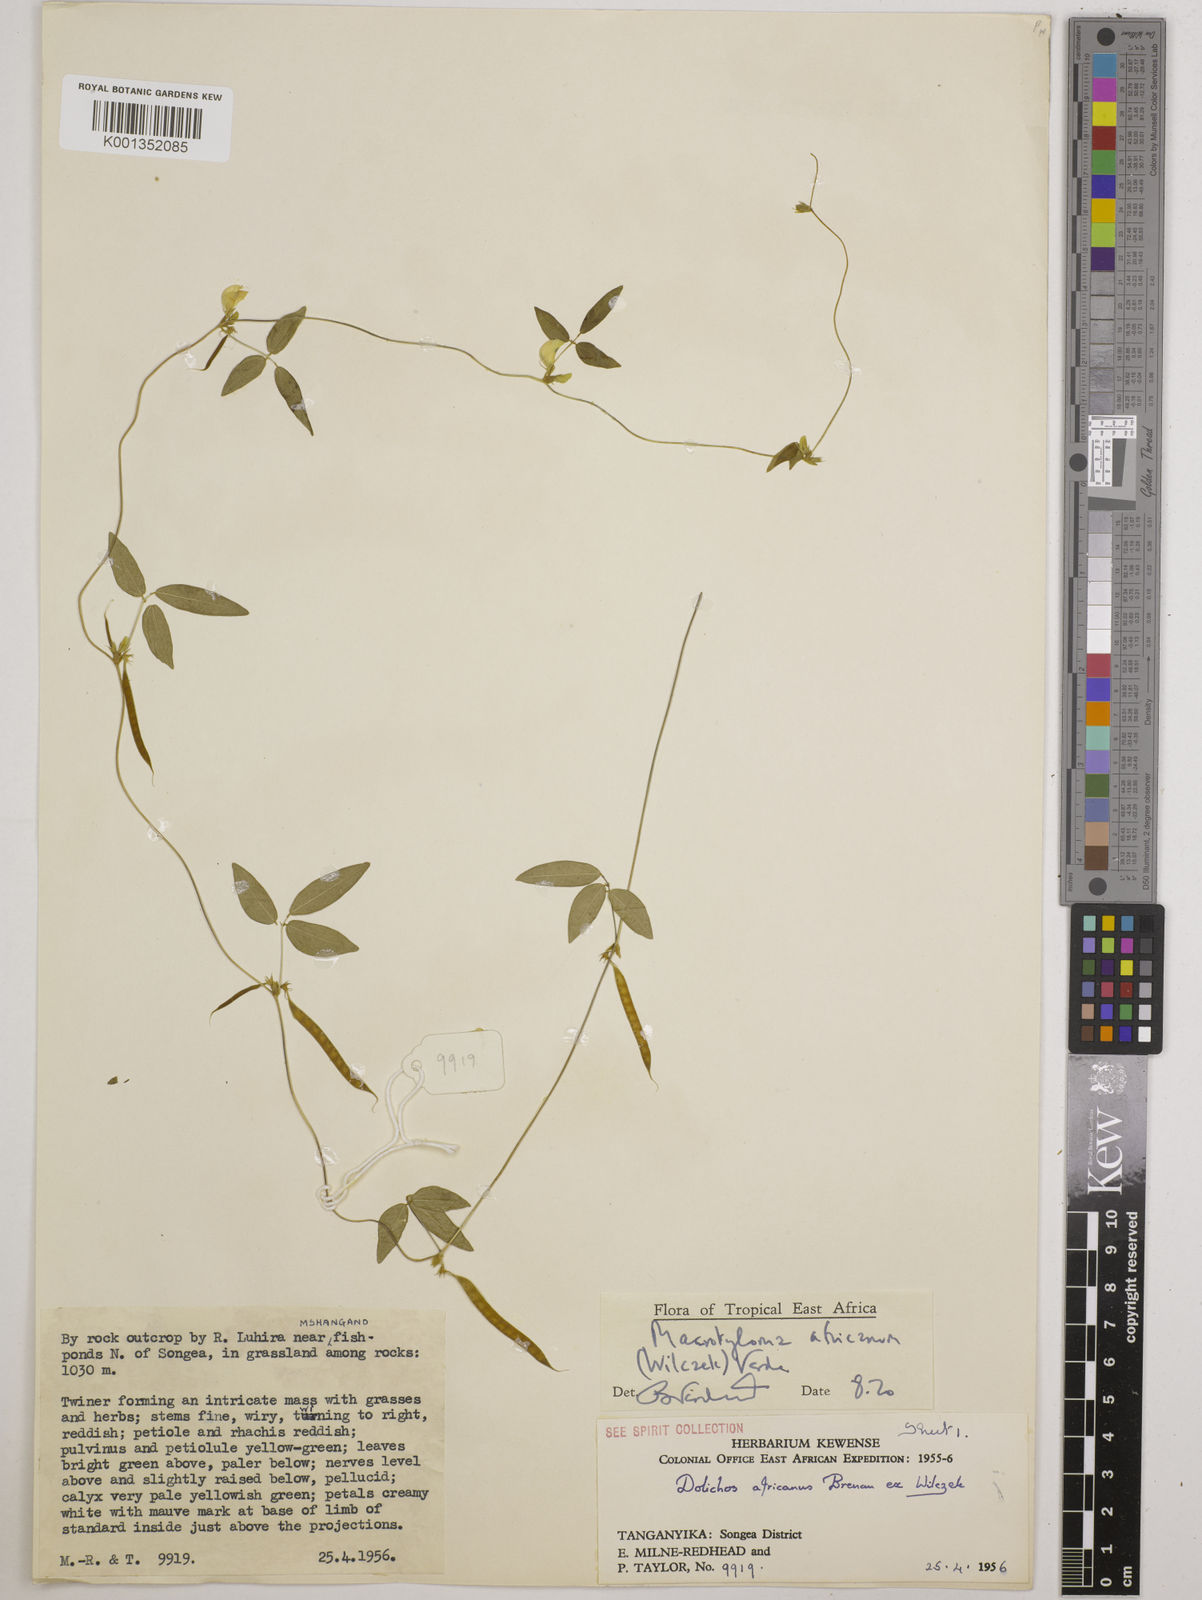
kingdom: Plantae
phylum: Tracheophyta
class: Magnoliopsida
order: Fabales
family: Fabaceae
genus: Macrotyloma
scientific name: Macrotyloma africanum
